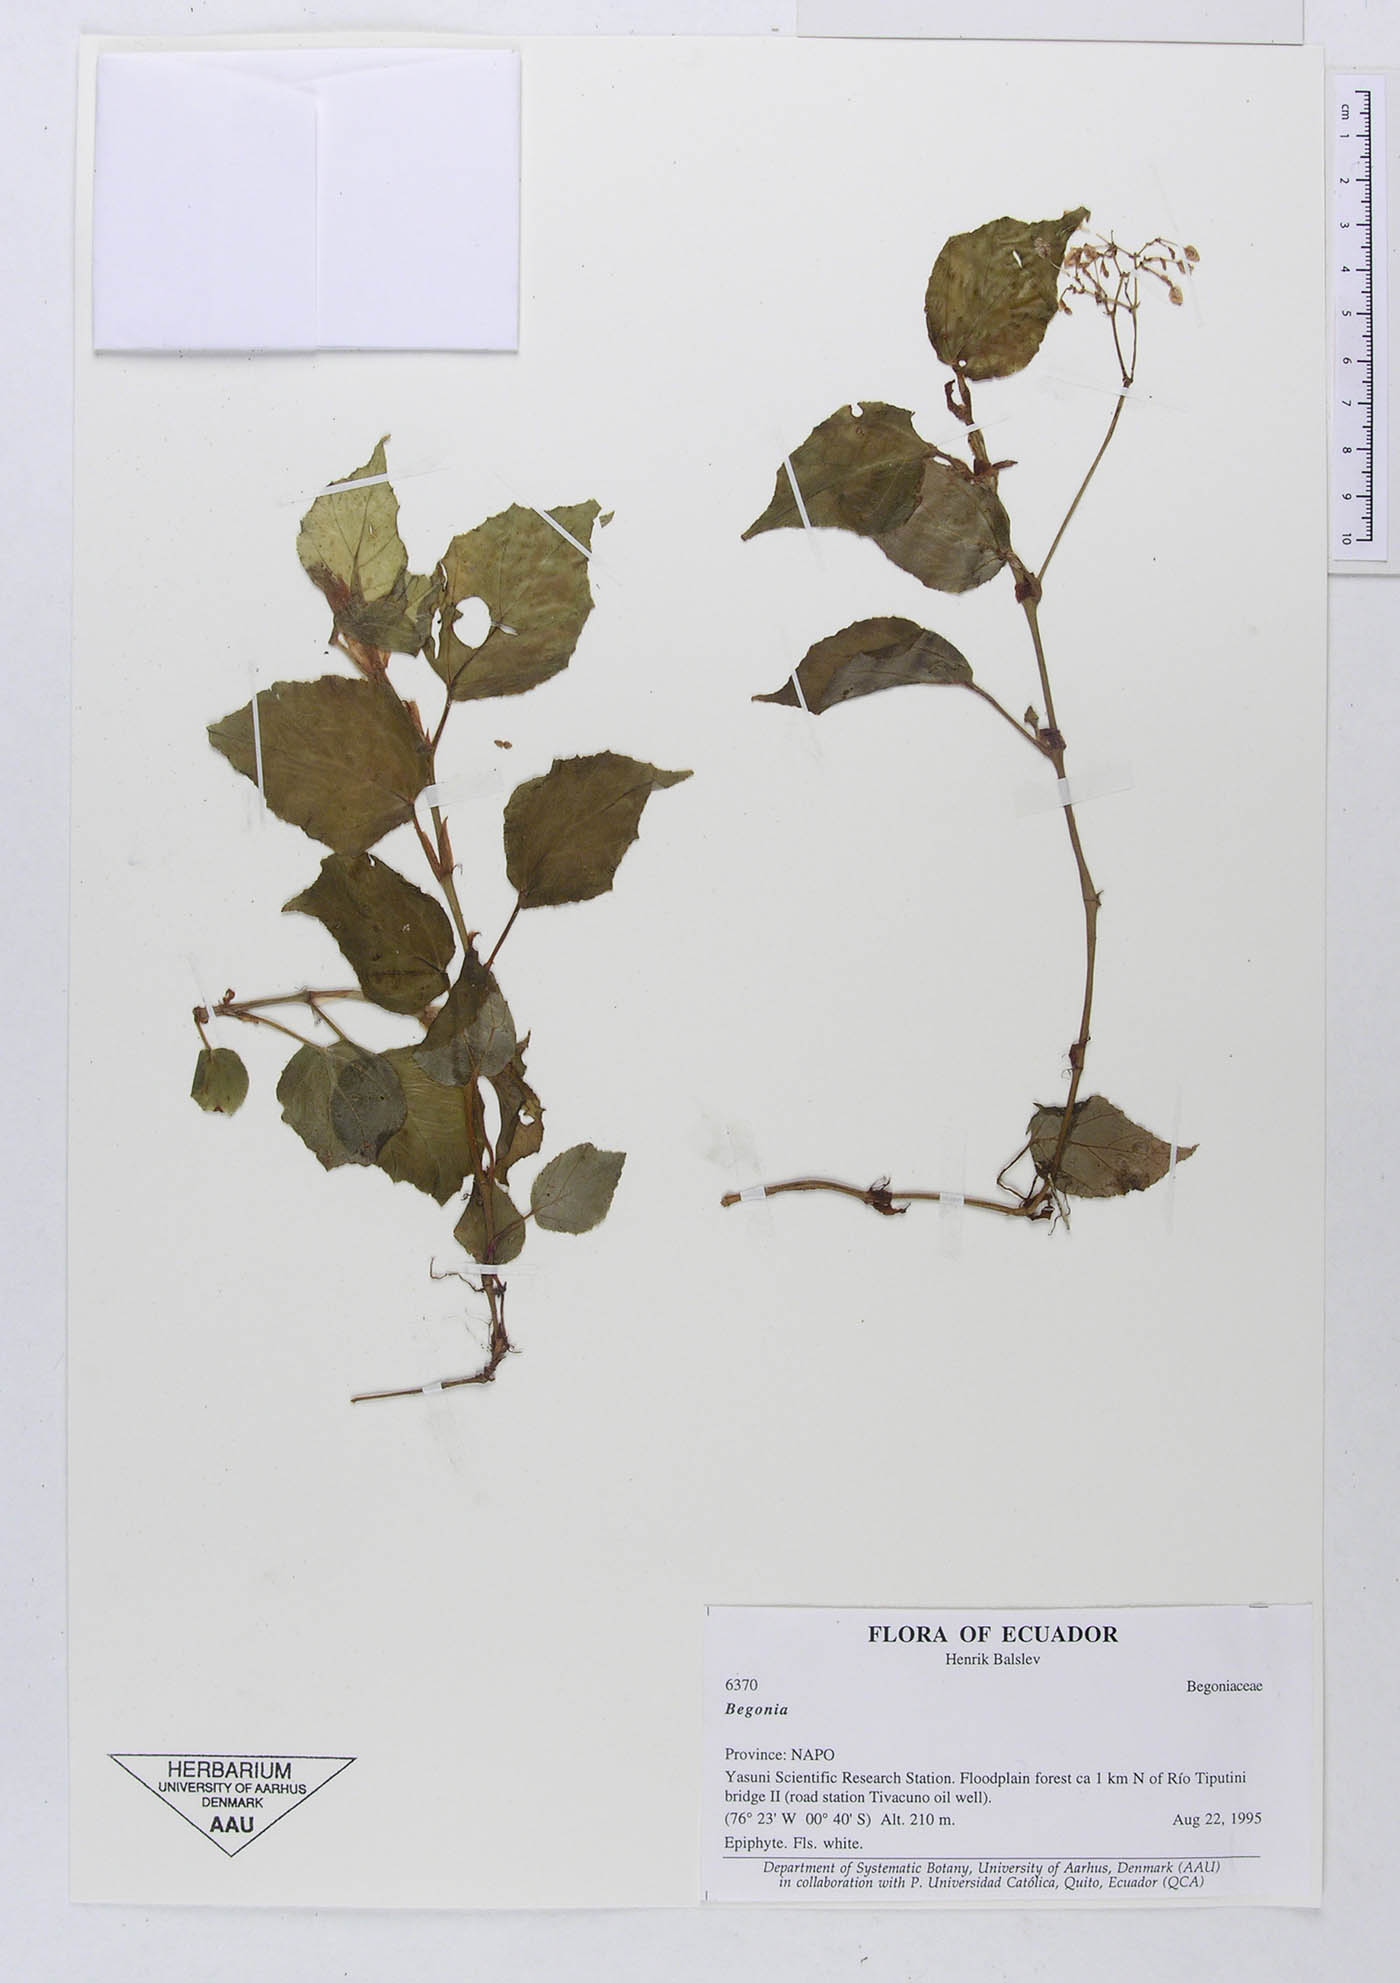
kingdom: Plantae
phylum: Tracheophyta
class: Magnoliopsida
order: Cucurbitales
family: Begoniaceae
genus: Begonia
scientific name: Begonia glabra
